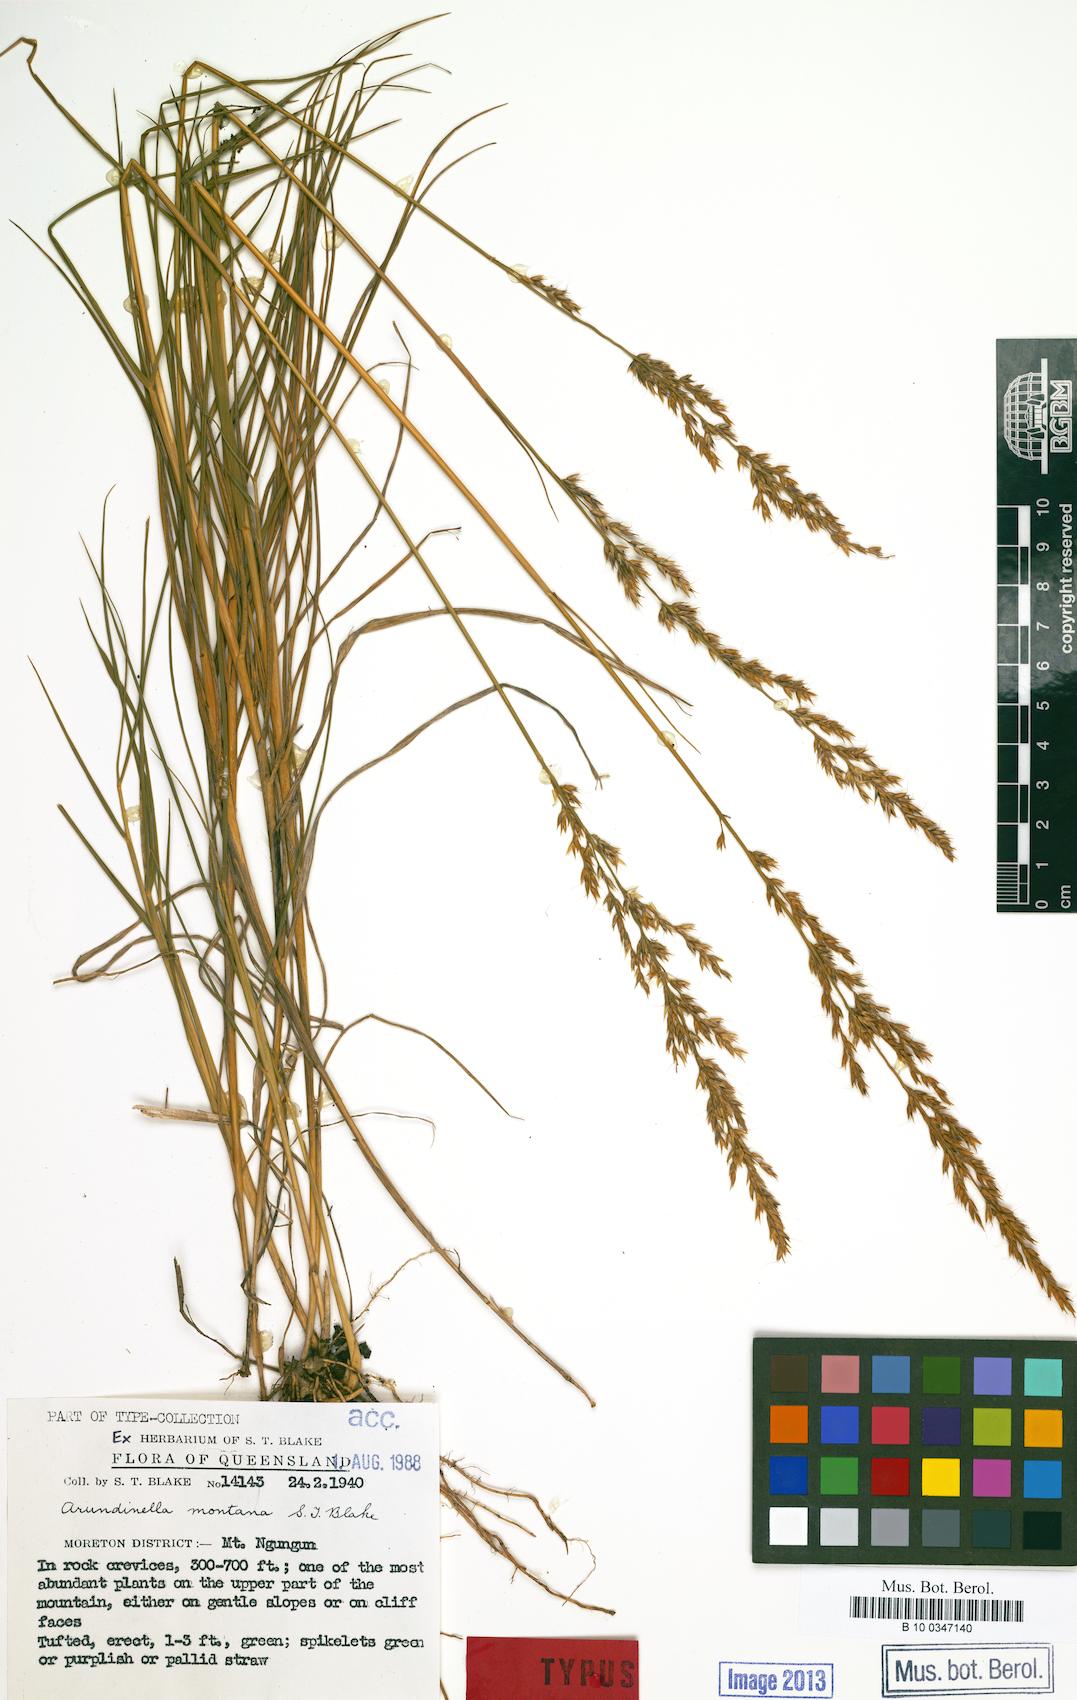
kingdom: Plantae
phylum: Tracheophyta
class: Liliopsida
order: Poales
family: Poaceae
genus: Arundinella
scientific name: Arundinella montana
